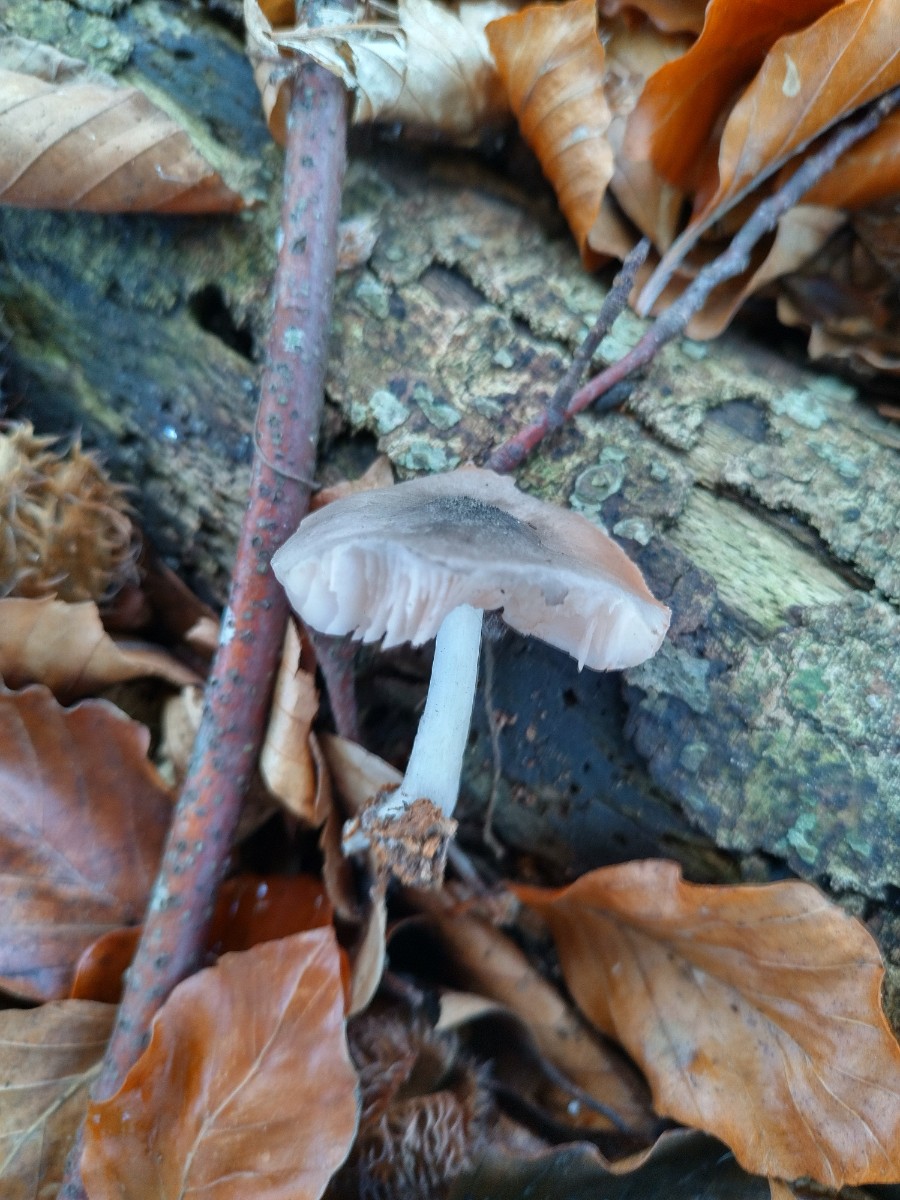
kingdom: Fungi
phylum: Basidiomycota
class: Agaricomycetes
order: Agaricales
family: Pluteaceae
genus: Pluteus
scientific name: Pluteus salicinus
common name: stiv skærmhat
